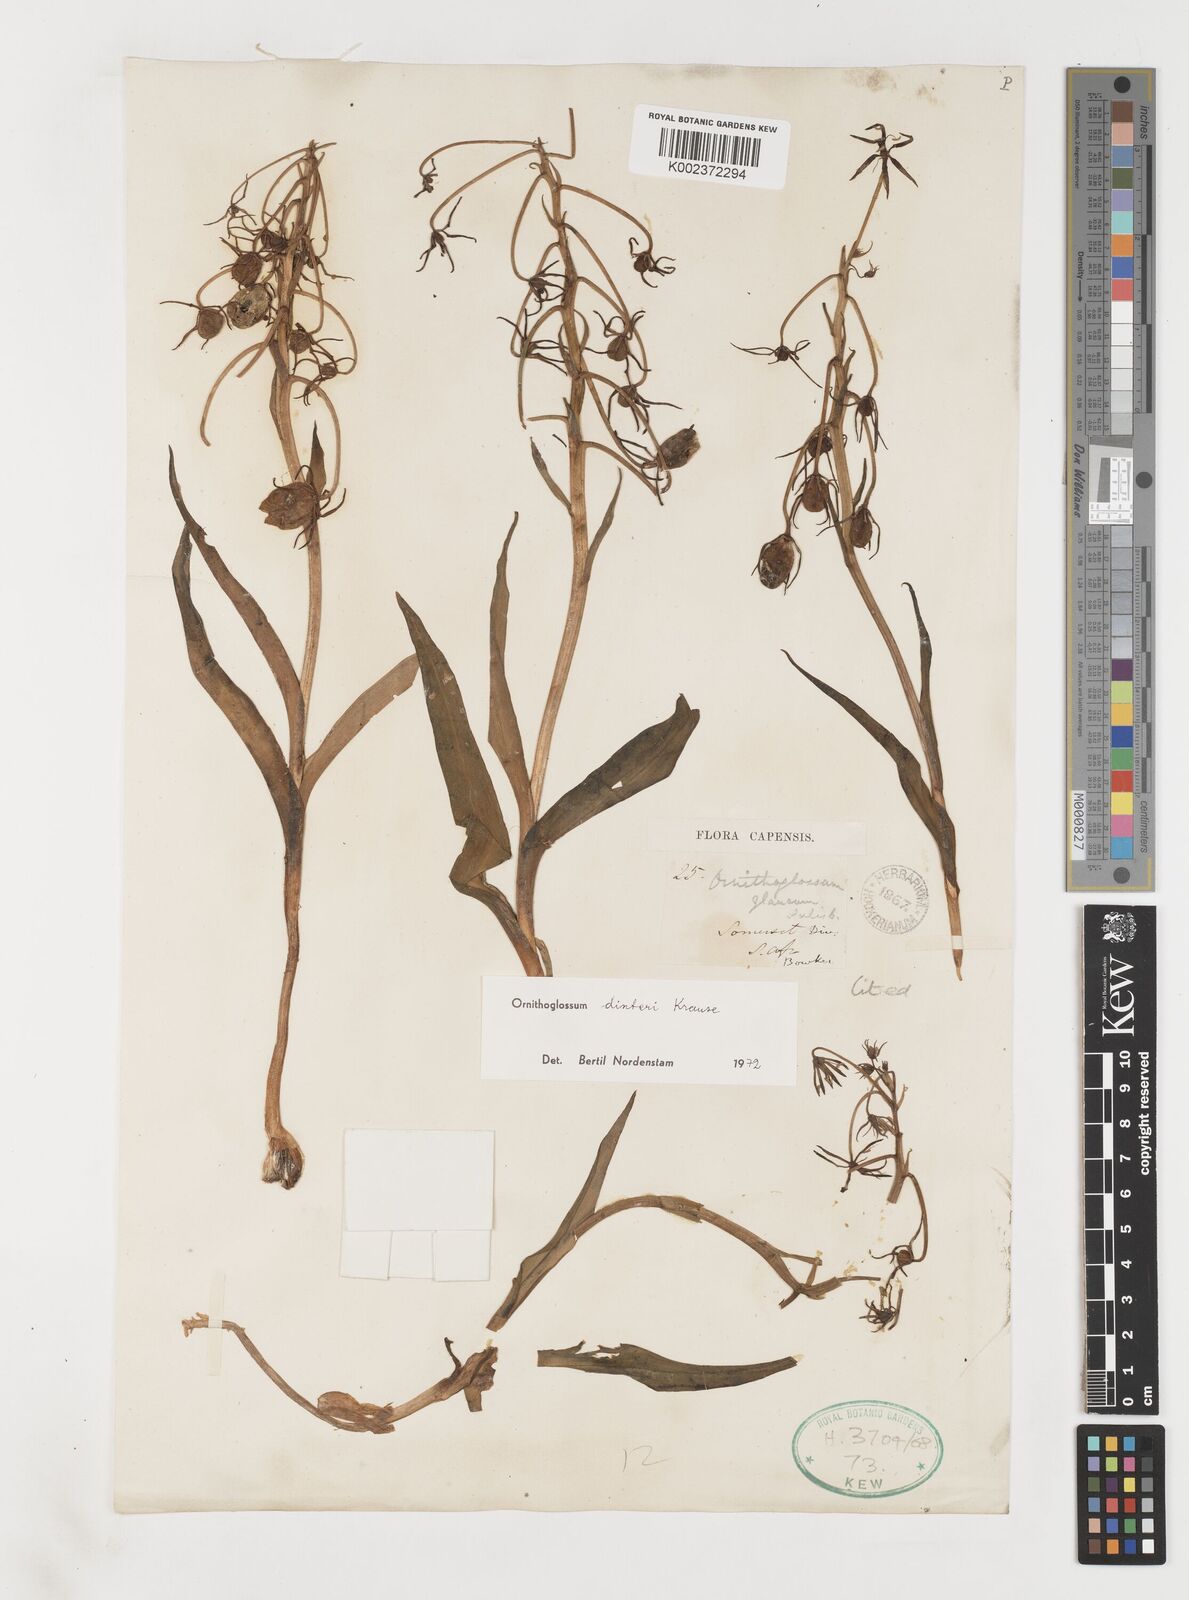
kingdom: Plantae
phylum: Tracheophyta
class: Liliopsida
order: Liliales
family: Colchicaceae
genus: Ornithoglossum
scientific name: Ornithoglossum dinteri
